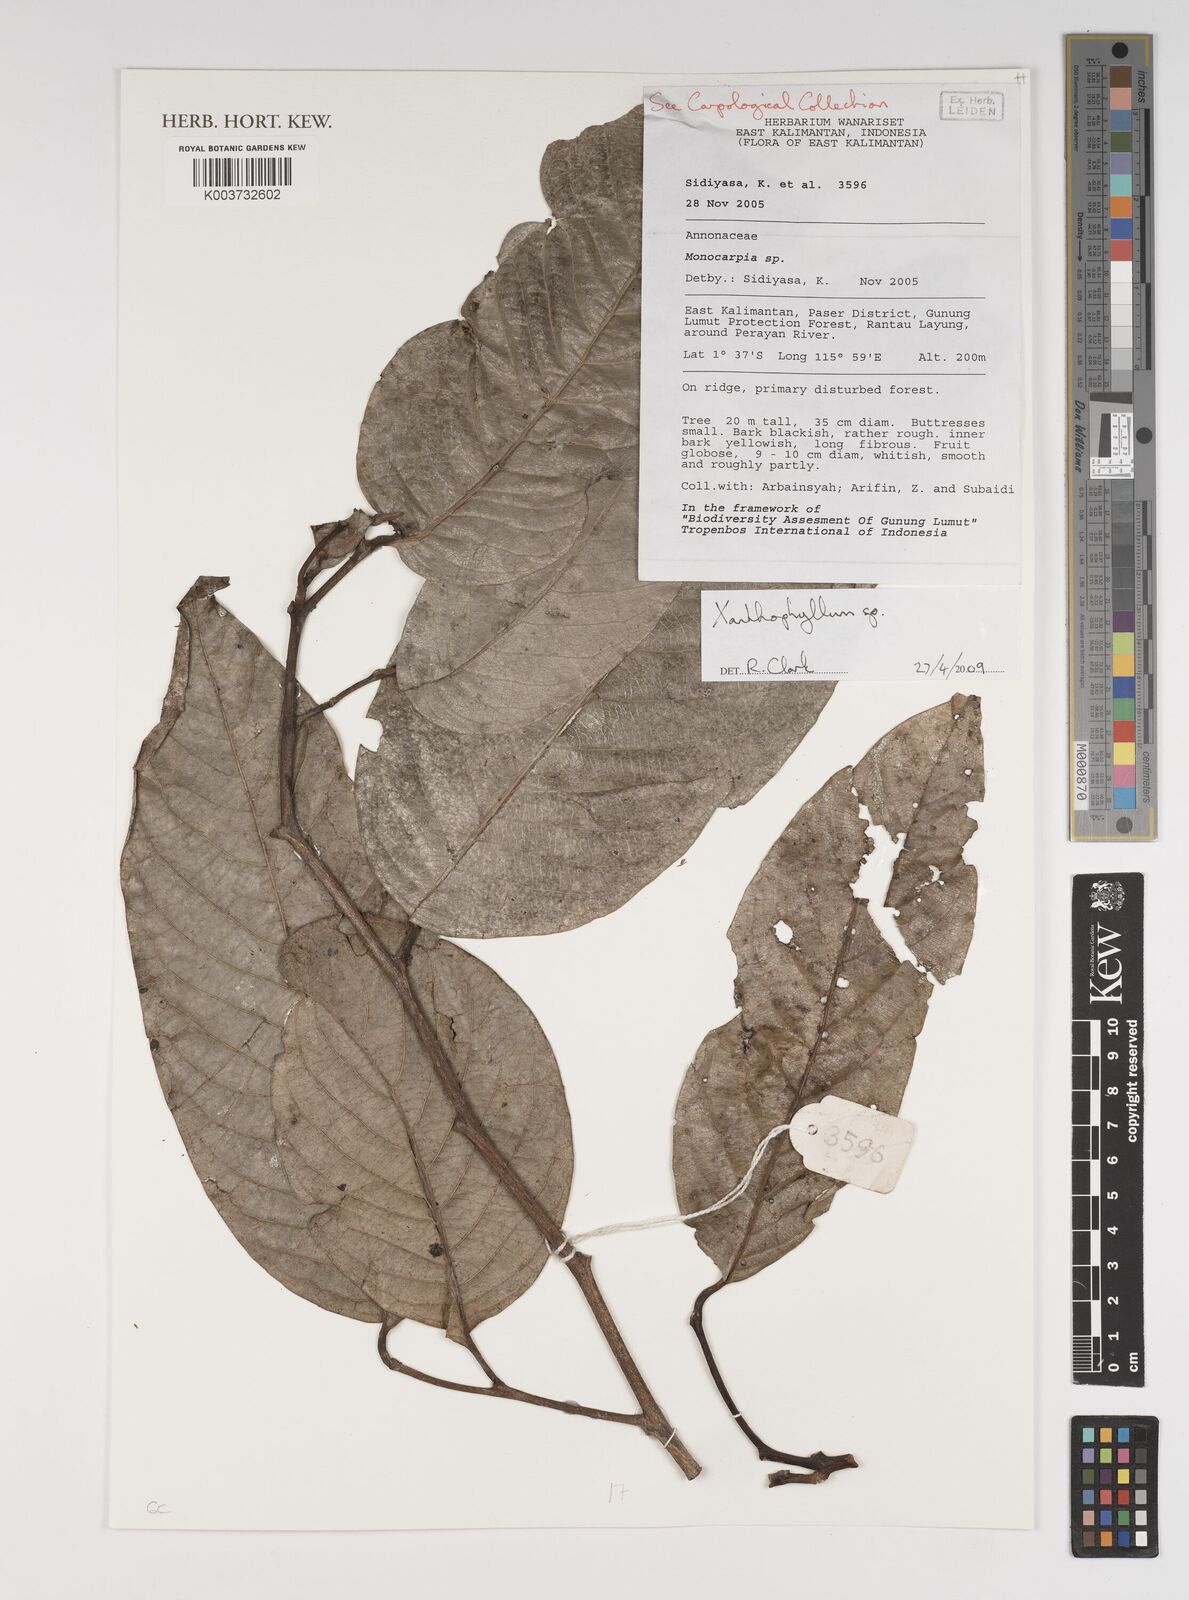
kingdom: Plantae
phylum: Tracheophyta
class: Magnoliopsida
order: Fabales
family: Polygalaceae
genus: Xanthophyllum
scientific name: Xanthophyllum
